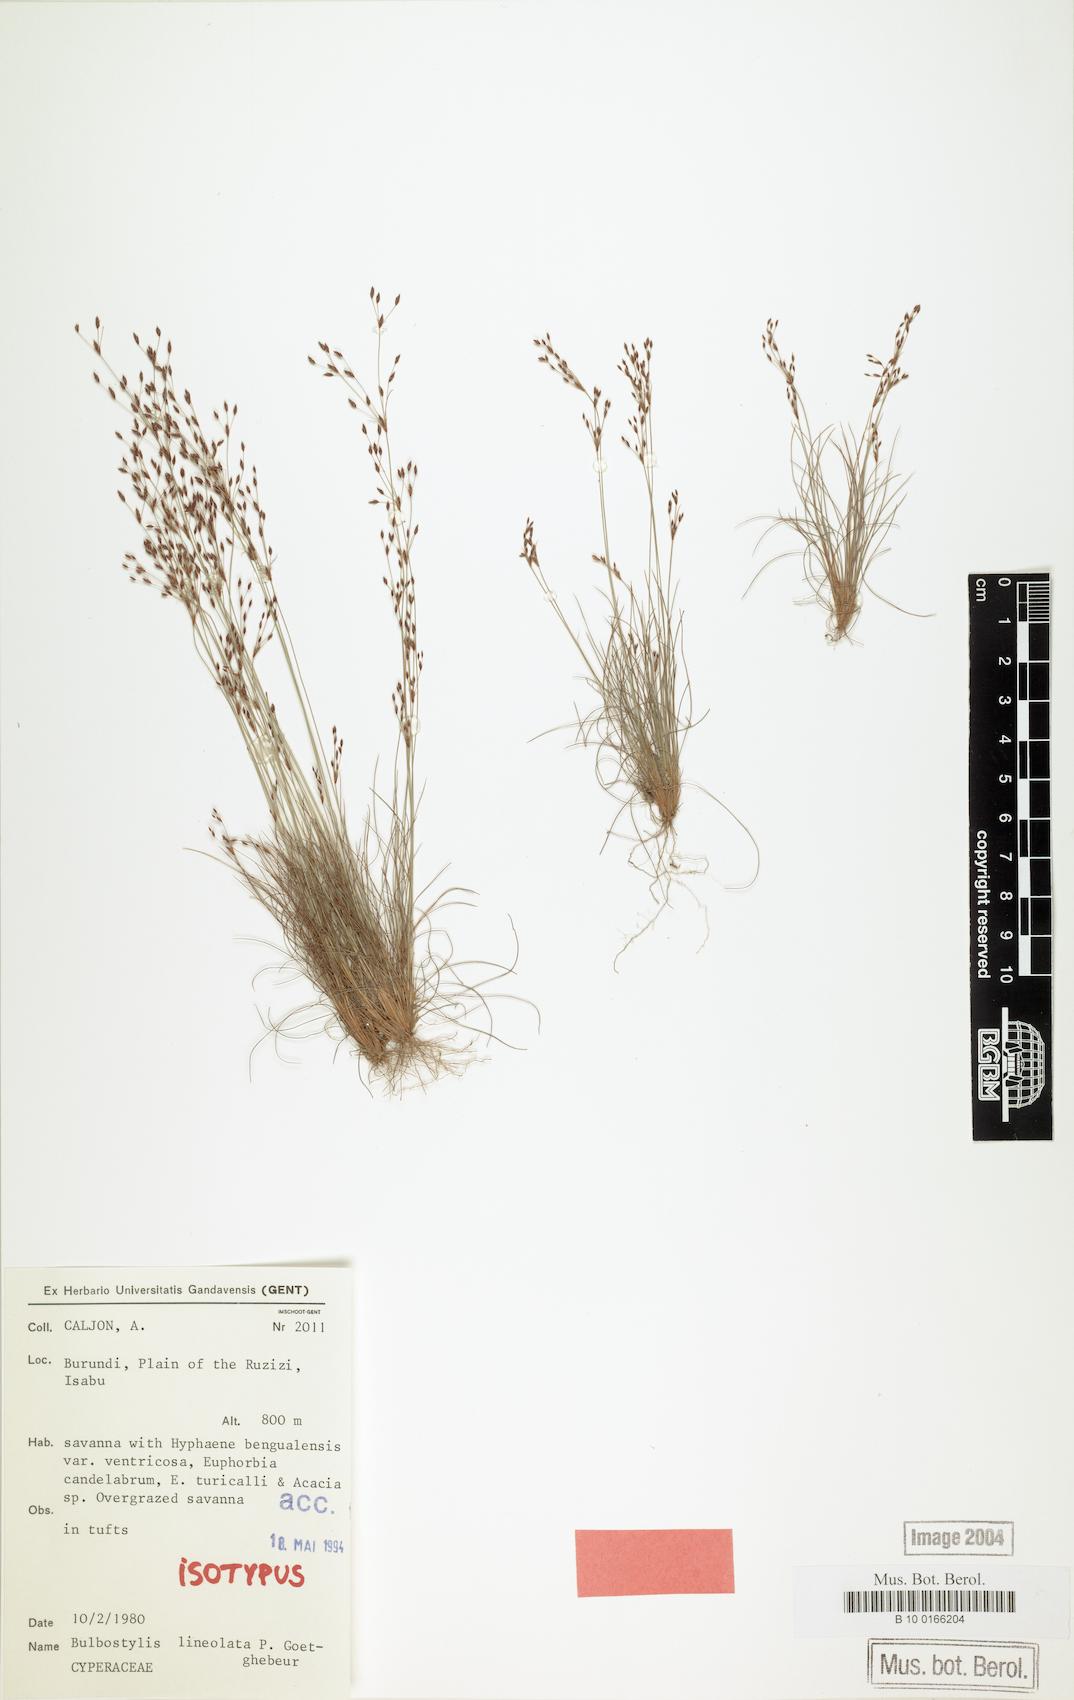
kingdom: Plantae
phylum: Tracheophyta
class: Liliopsida
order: Poales
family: Cyperaceae
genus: Bulbostylis
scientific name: Bulbostylis scrobiculata
